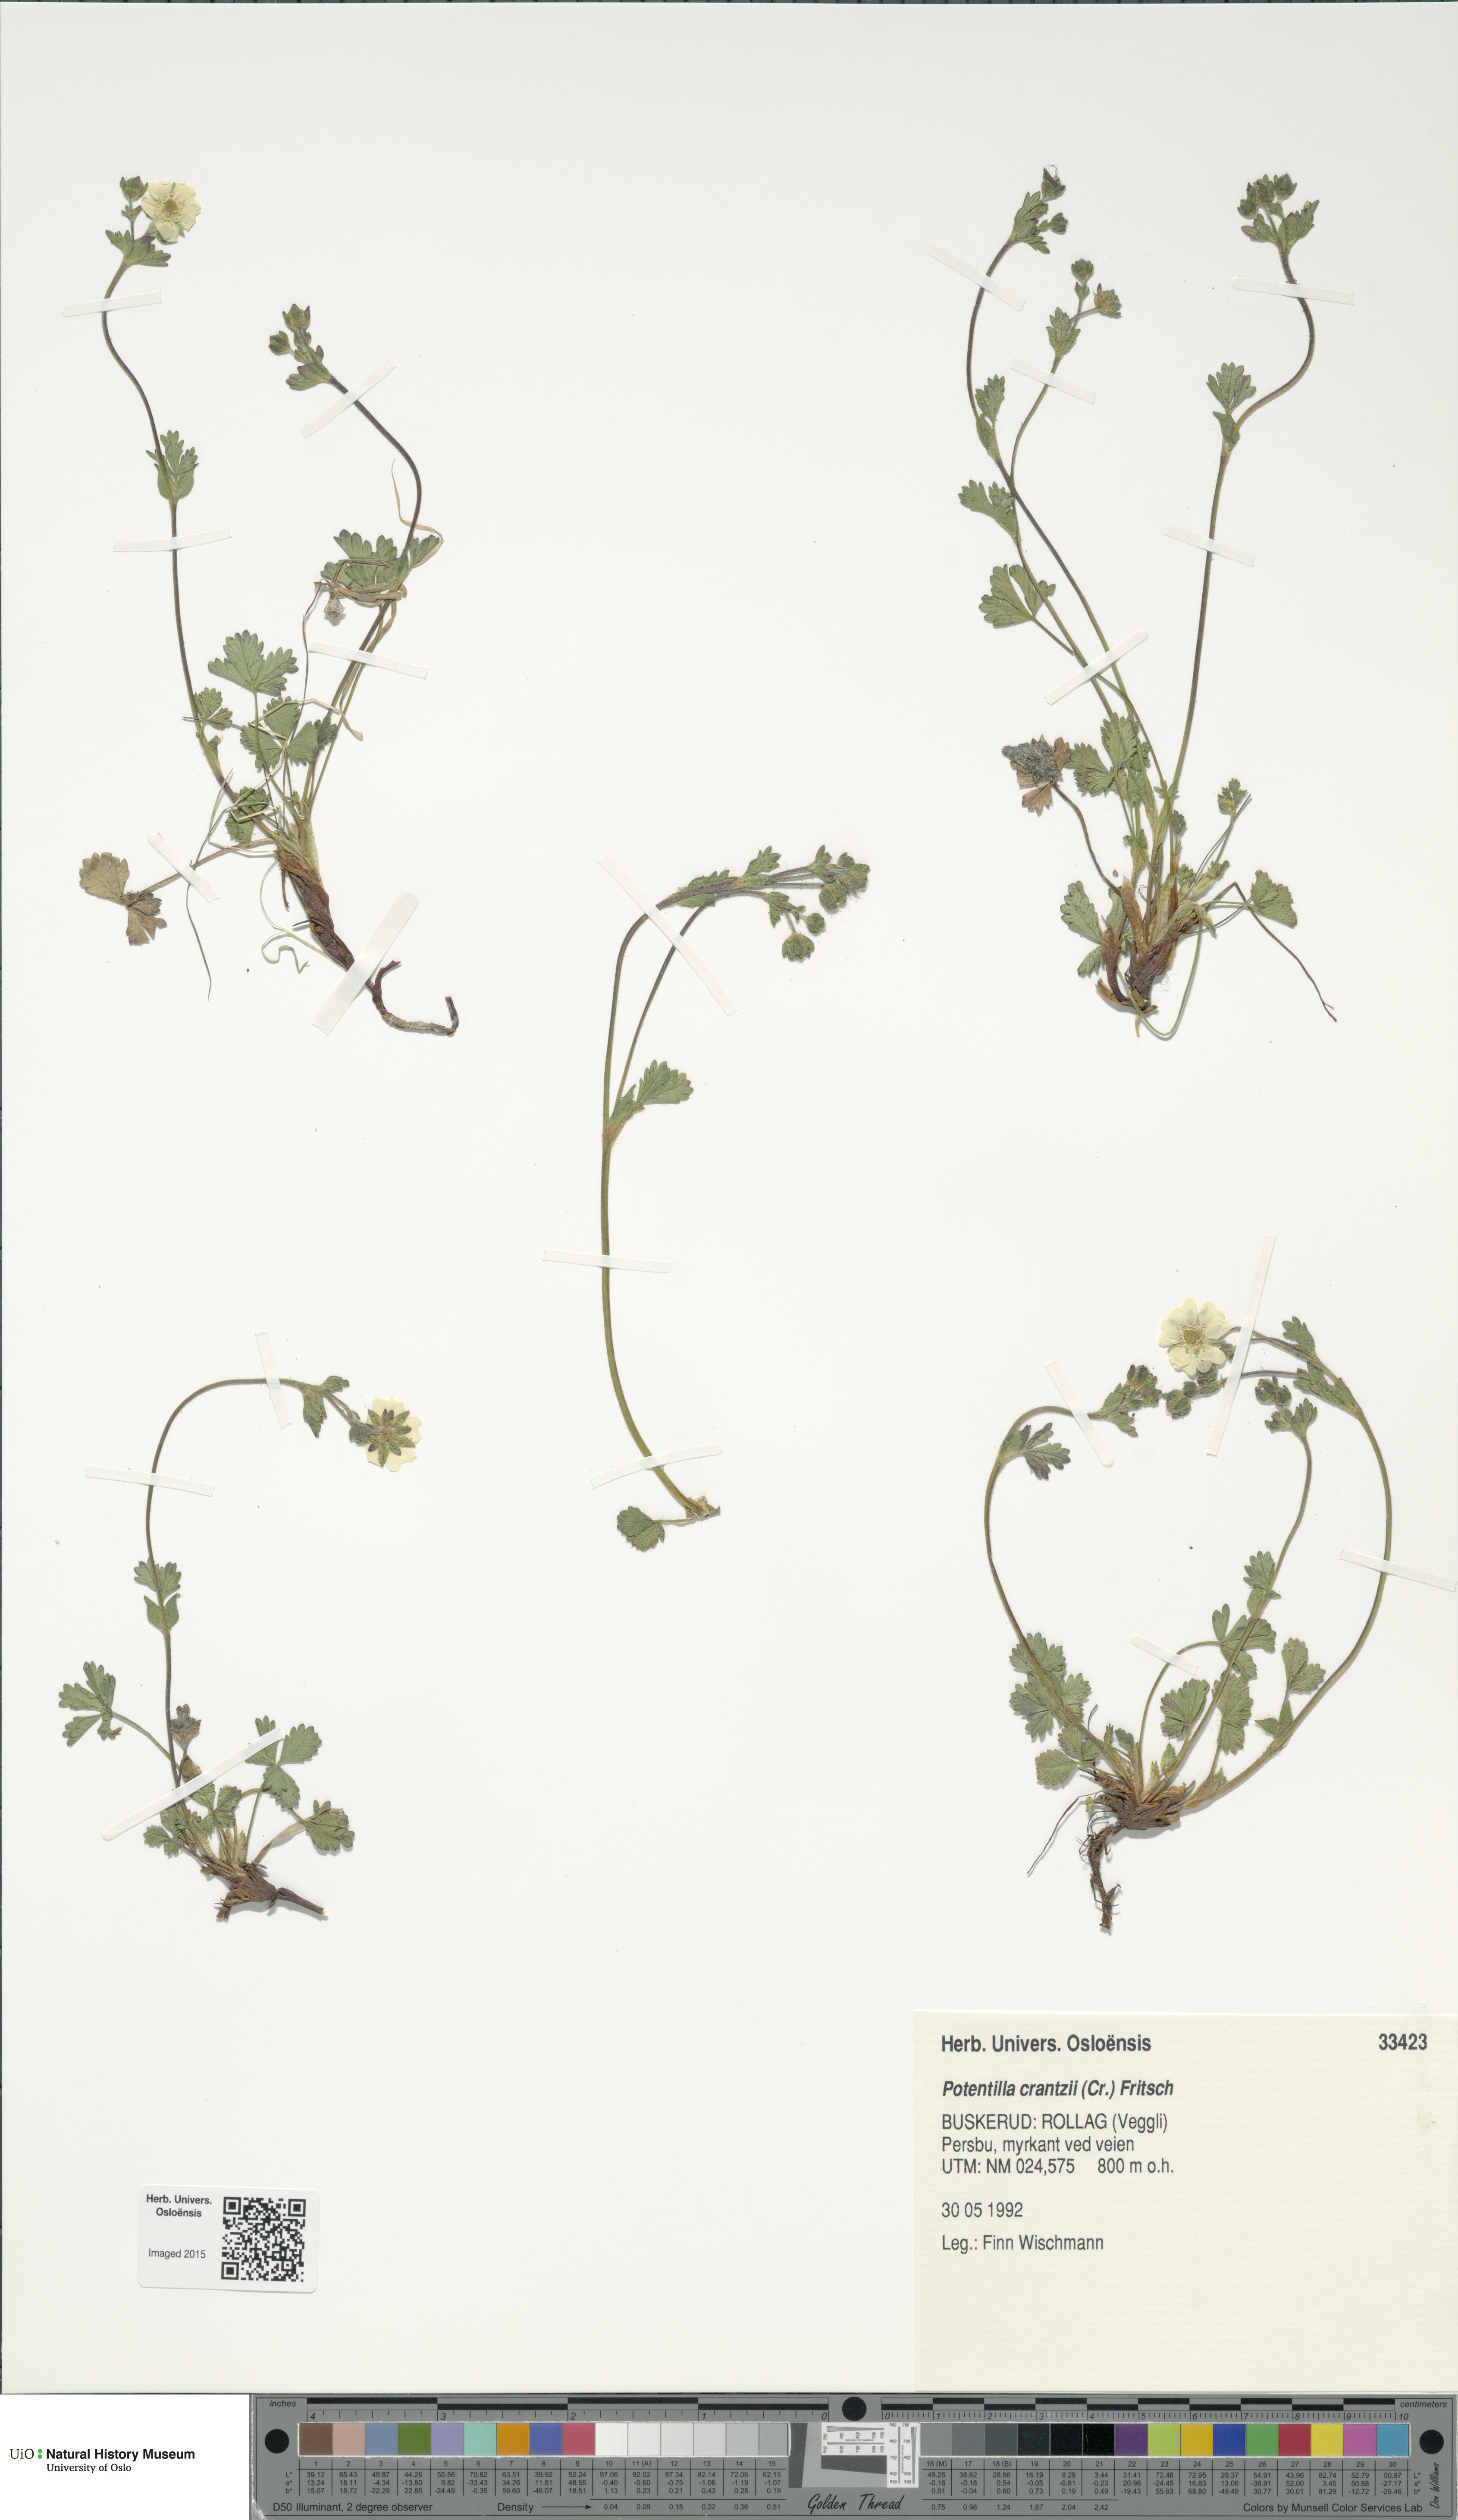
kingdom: Plantae
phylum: Tracheophyta
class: Magnoliopsida
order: Rosales
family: Rosaceae
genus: Potentilla
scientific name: Potentilla crantzii
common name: Alpine cinquefoil
